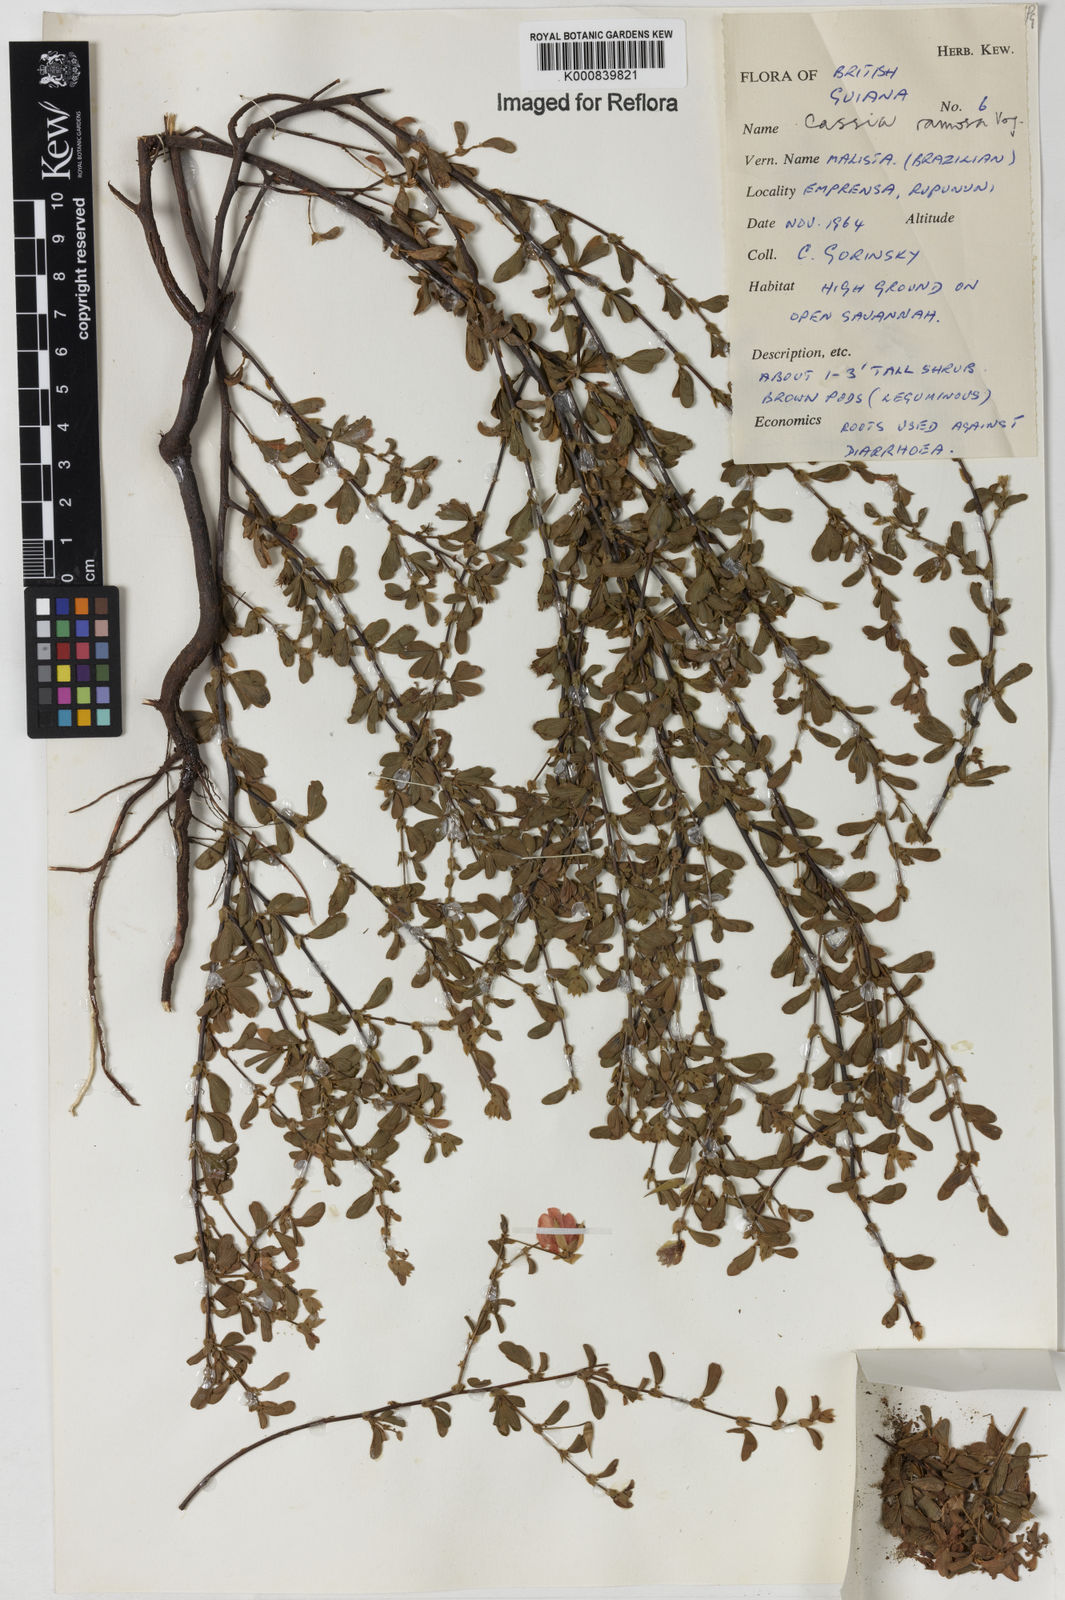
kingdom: Plantae
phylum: Tracheophyta
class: Magnoliopsida
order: Fabales
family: Fabaceae
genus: Chamaecrista
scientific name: Chamaecrista ramosa
